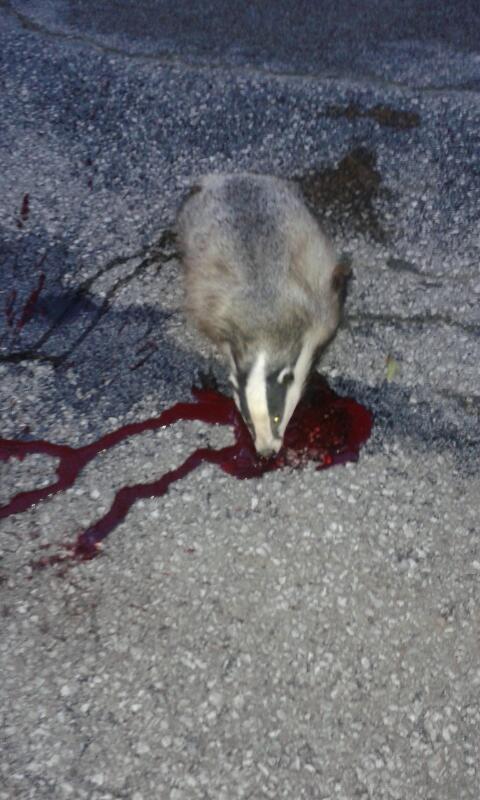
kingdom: Animalia
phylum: Chordata
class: Mammalia
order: Carnivora
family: Mustelidae
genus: Meles
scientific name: Meles meles
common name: Eurasian badger
